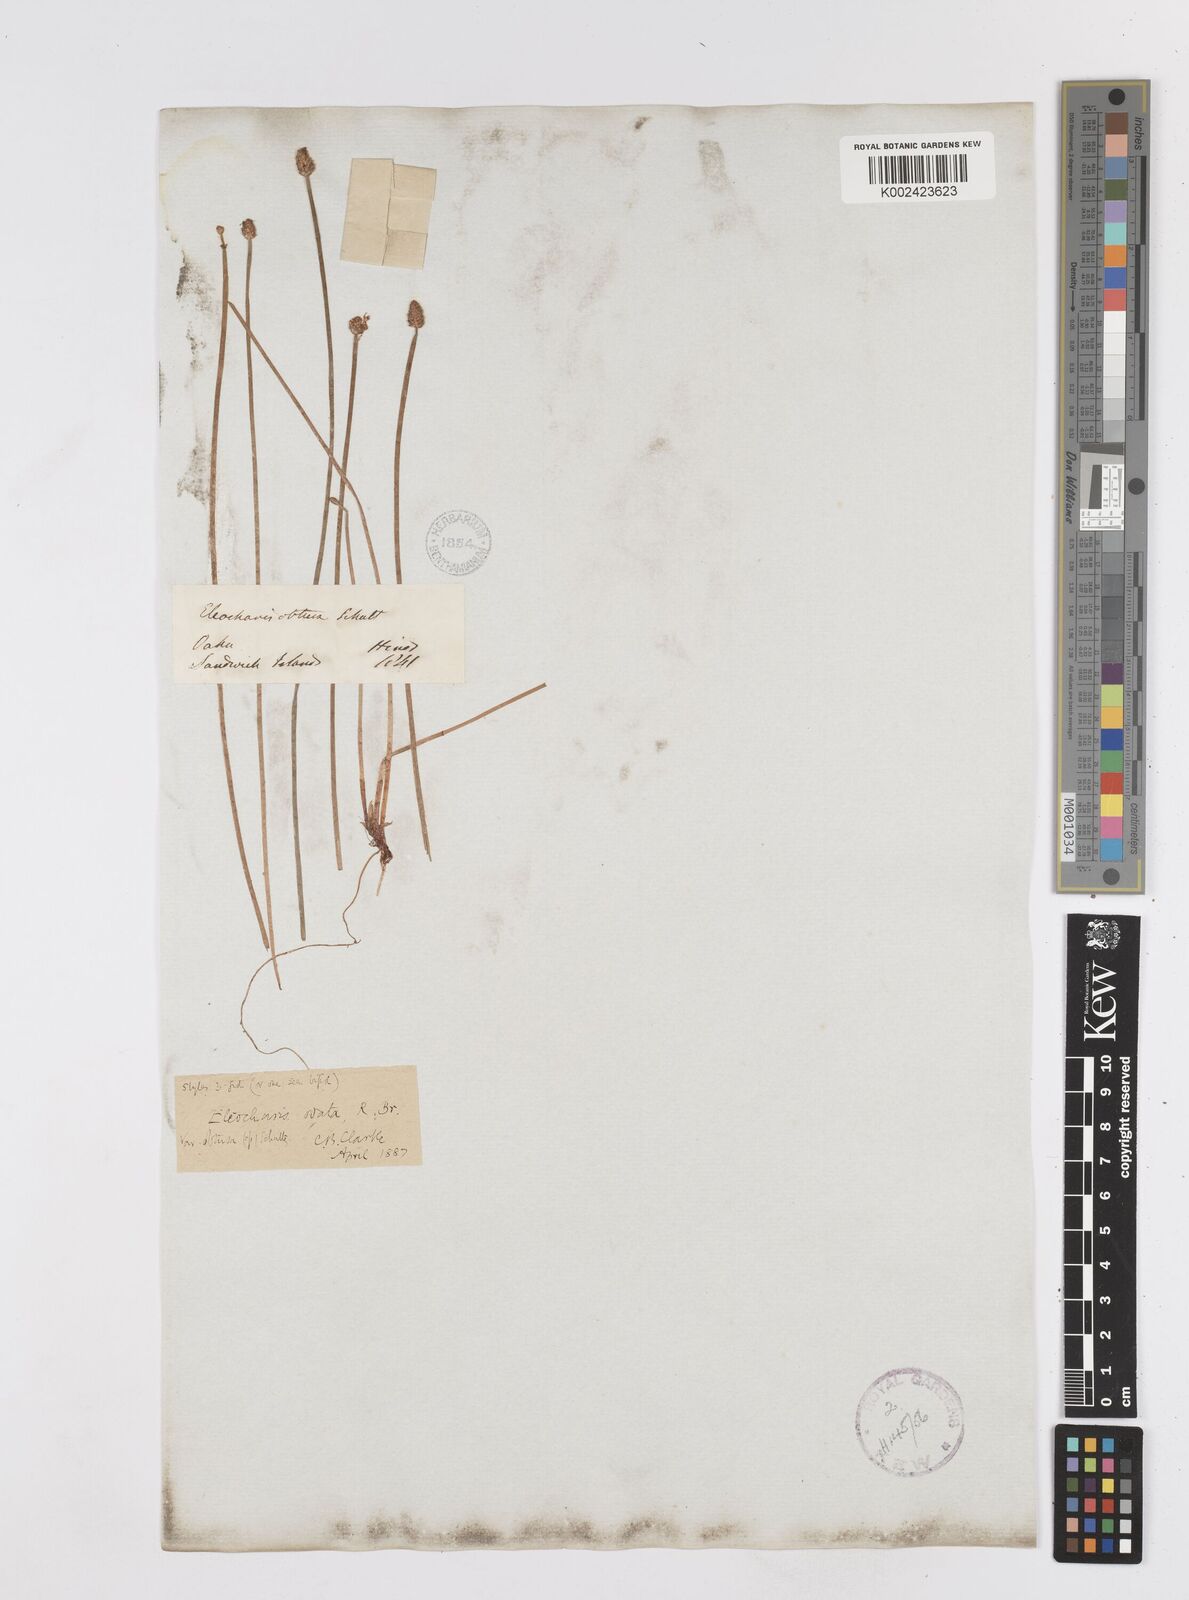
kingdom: Plantae
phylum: Tracheophyta
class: Liliopsida
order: Poales
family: Cyperaceae
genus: Eleocharis
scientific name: Eleocharis obtusa
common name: Blunt spikerush
